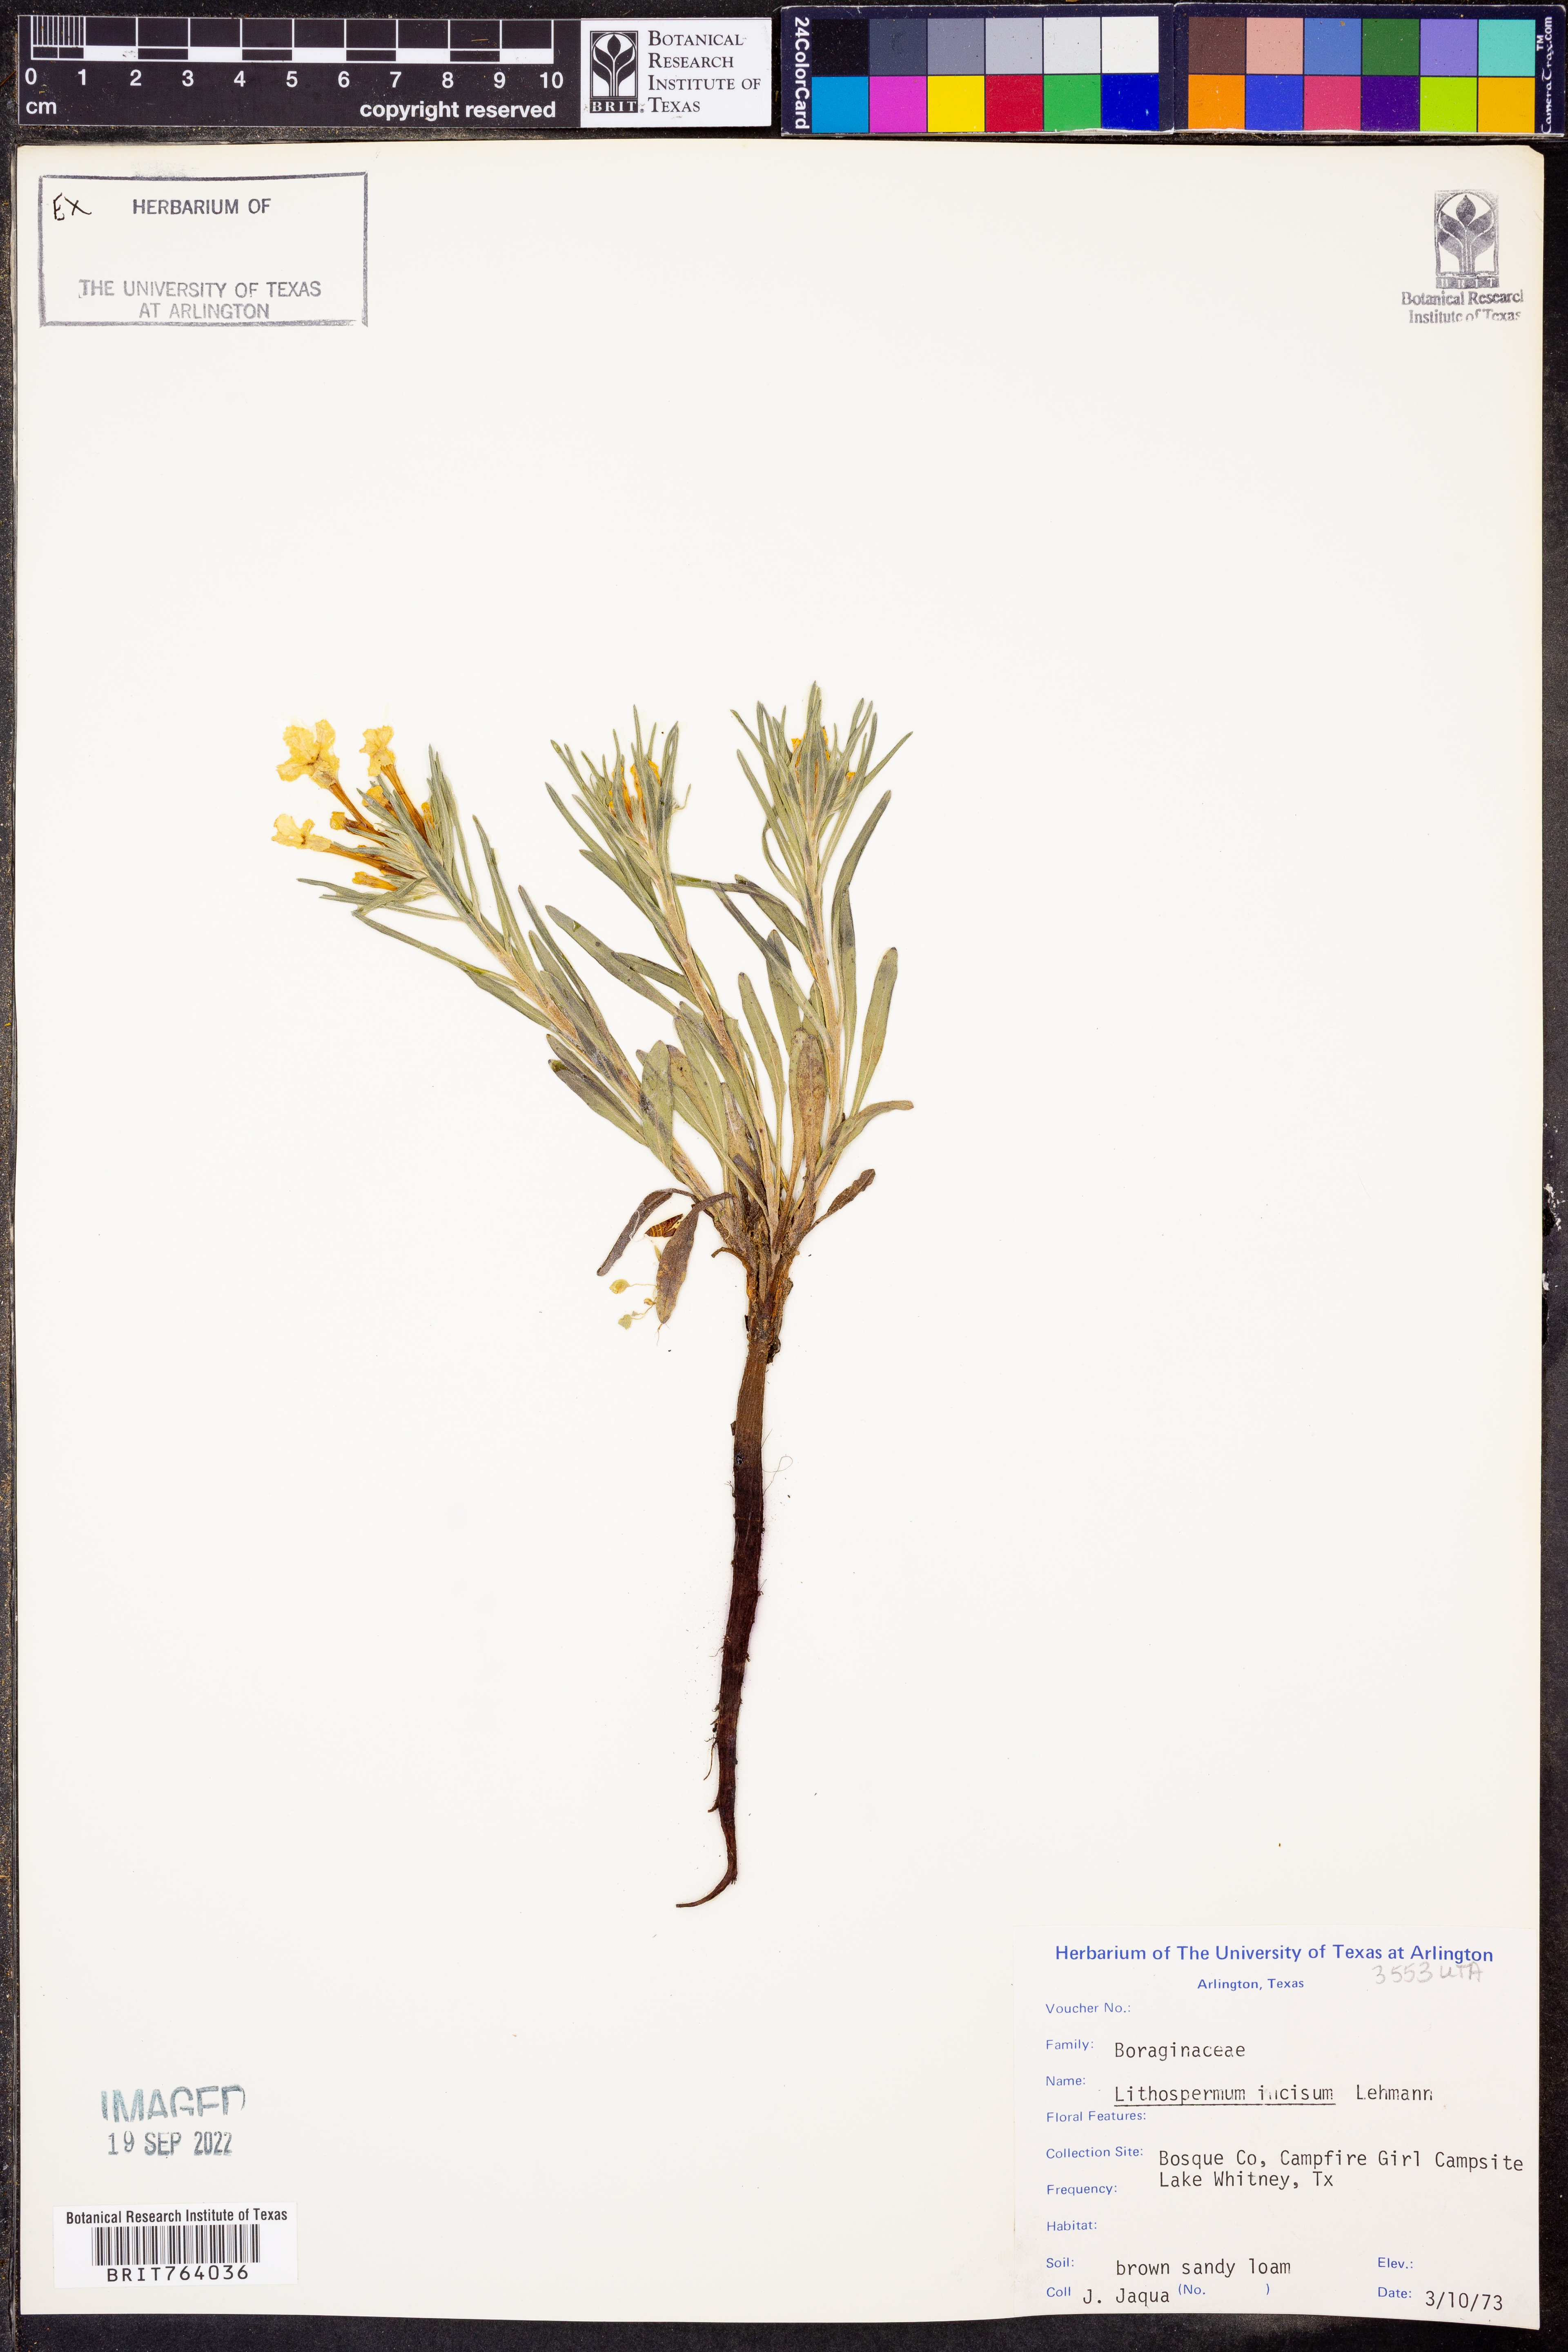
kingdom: Plantae
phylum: Tracheophyta
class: Magnoliopsida
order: Boraginales
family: Boraginaceae
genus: Lithospermum
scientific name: Lithospermum incisum
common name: Fringed gromwell
